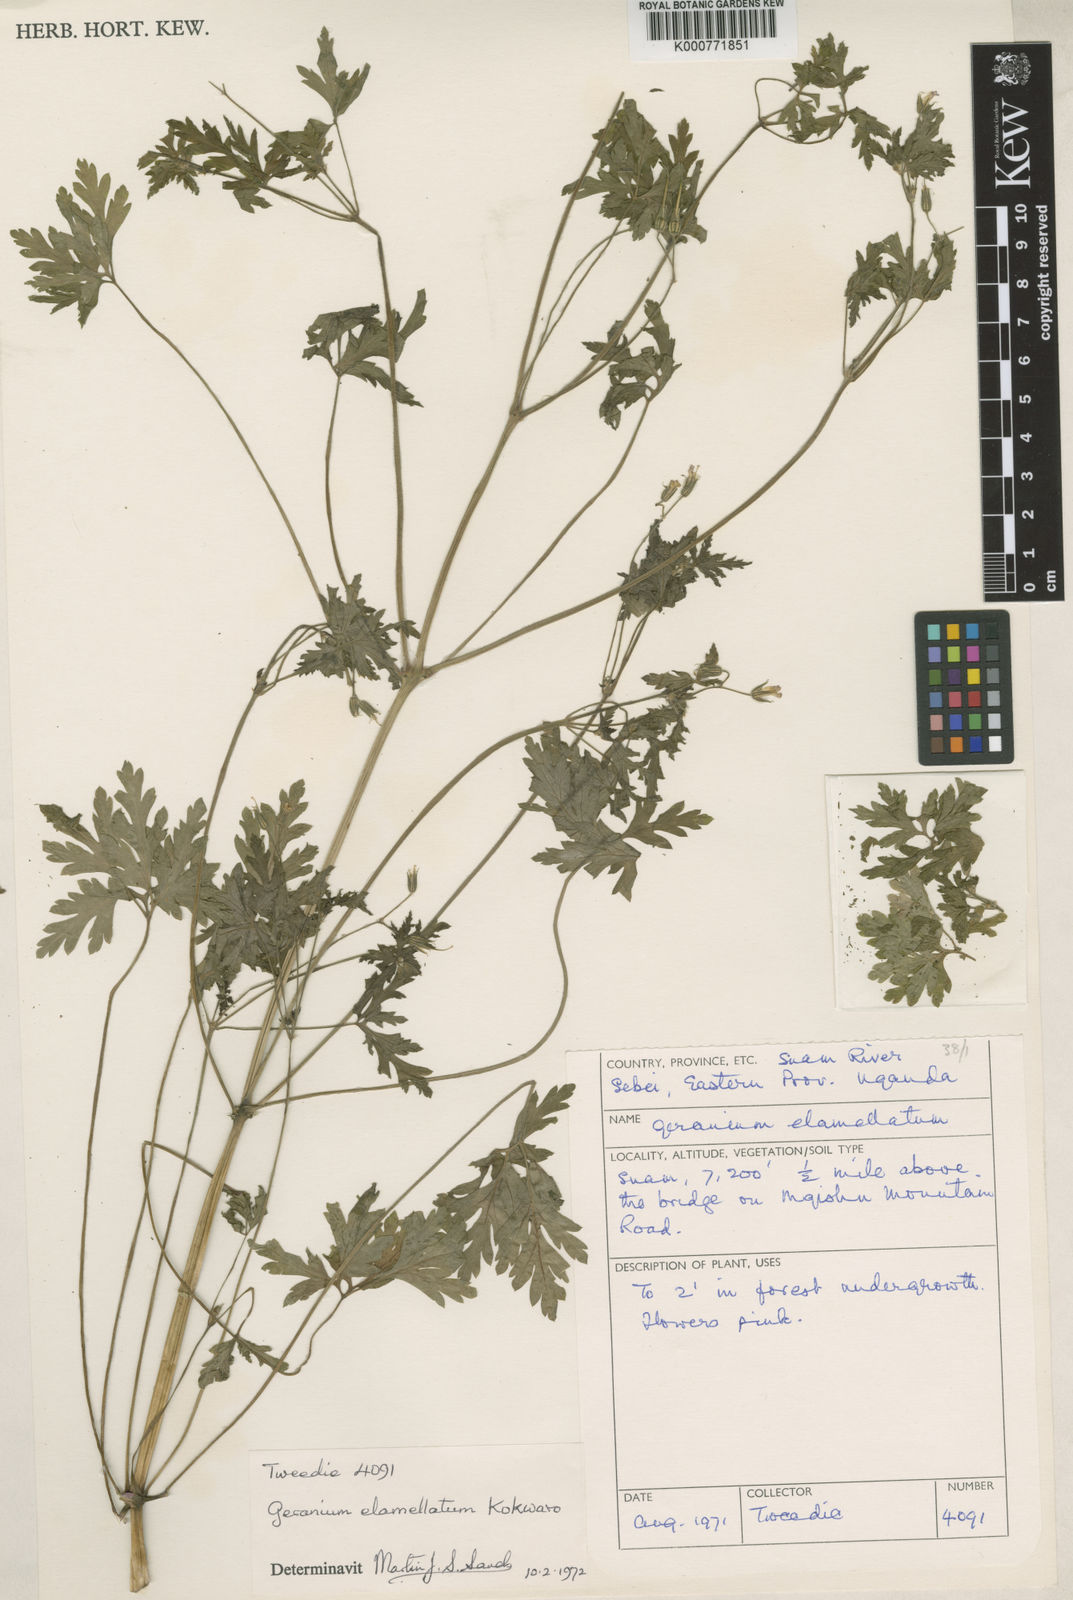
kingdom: Plantae
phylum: Tracheophyta
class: Magnoliopsida
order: Geraniales
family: Geraniaceae
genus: Geranium
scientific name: Geranium purpureum
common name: Little-robin
